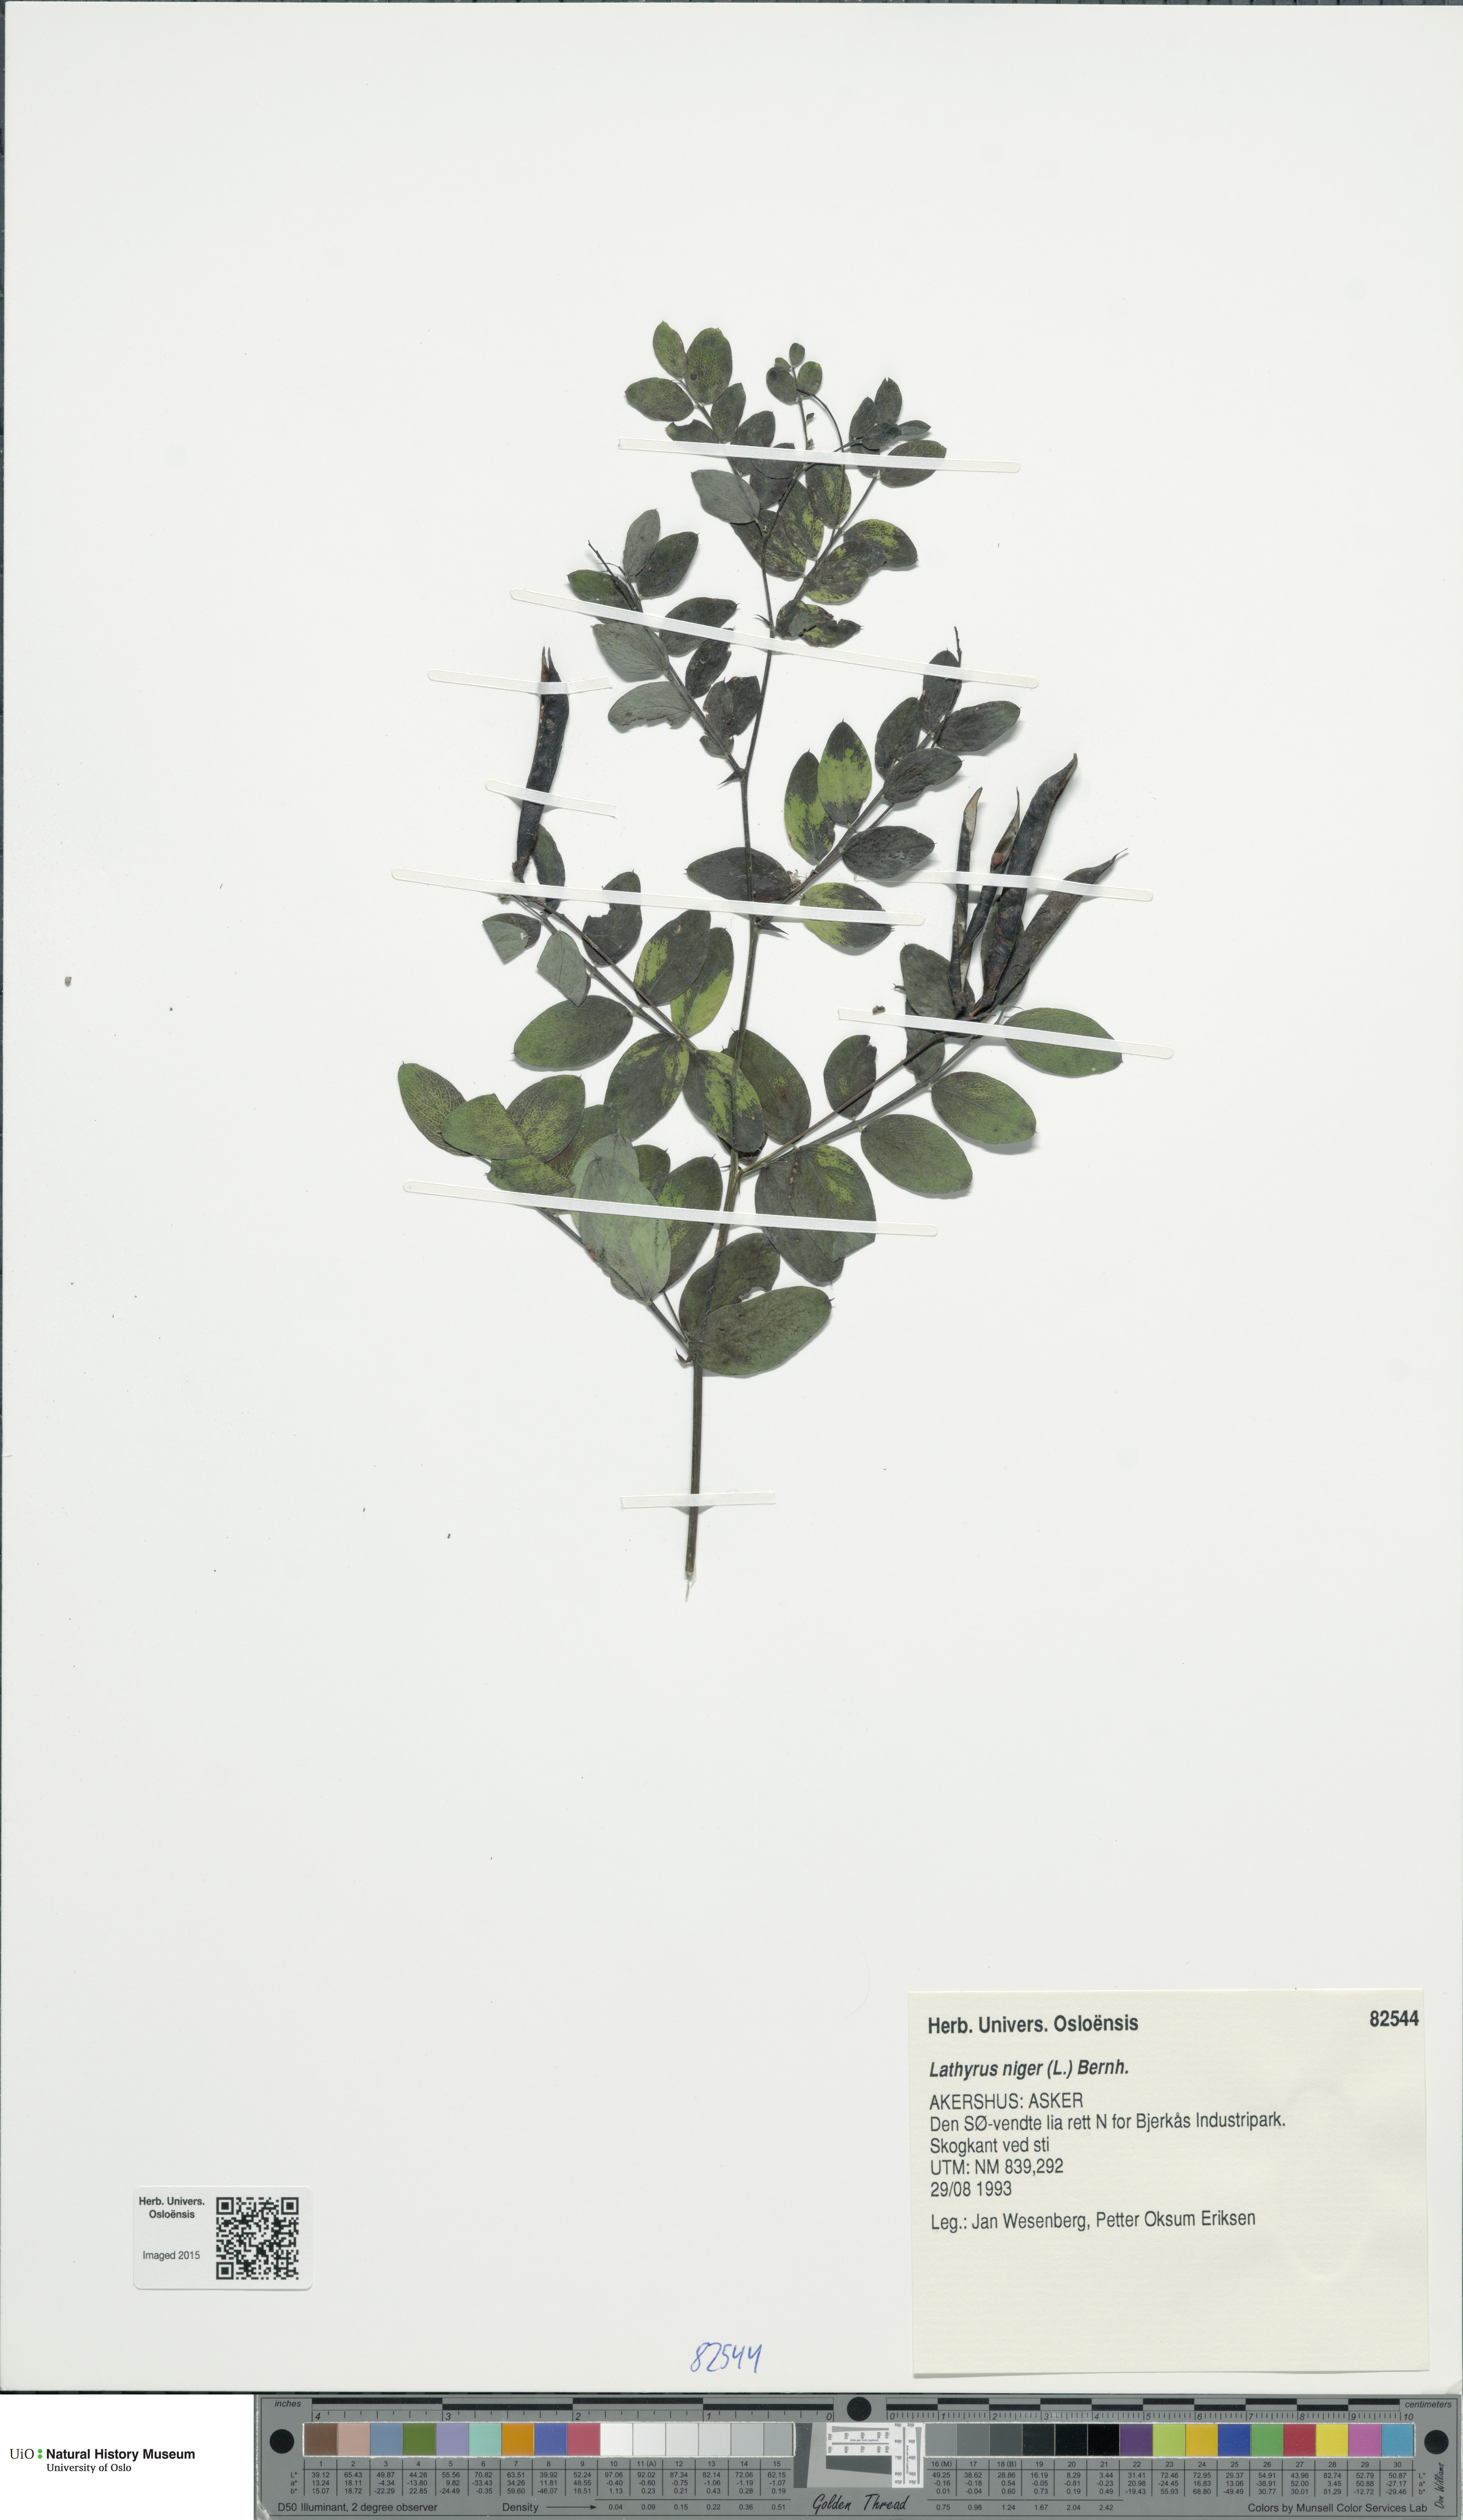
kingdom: Plantae
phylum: Tracheophyta
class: Magnoliopsida
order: Fabales
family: Fabaceae
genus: Lathyrus
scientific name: Lathyrus niger
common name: Black pea
